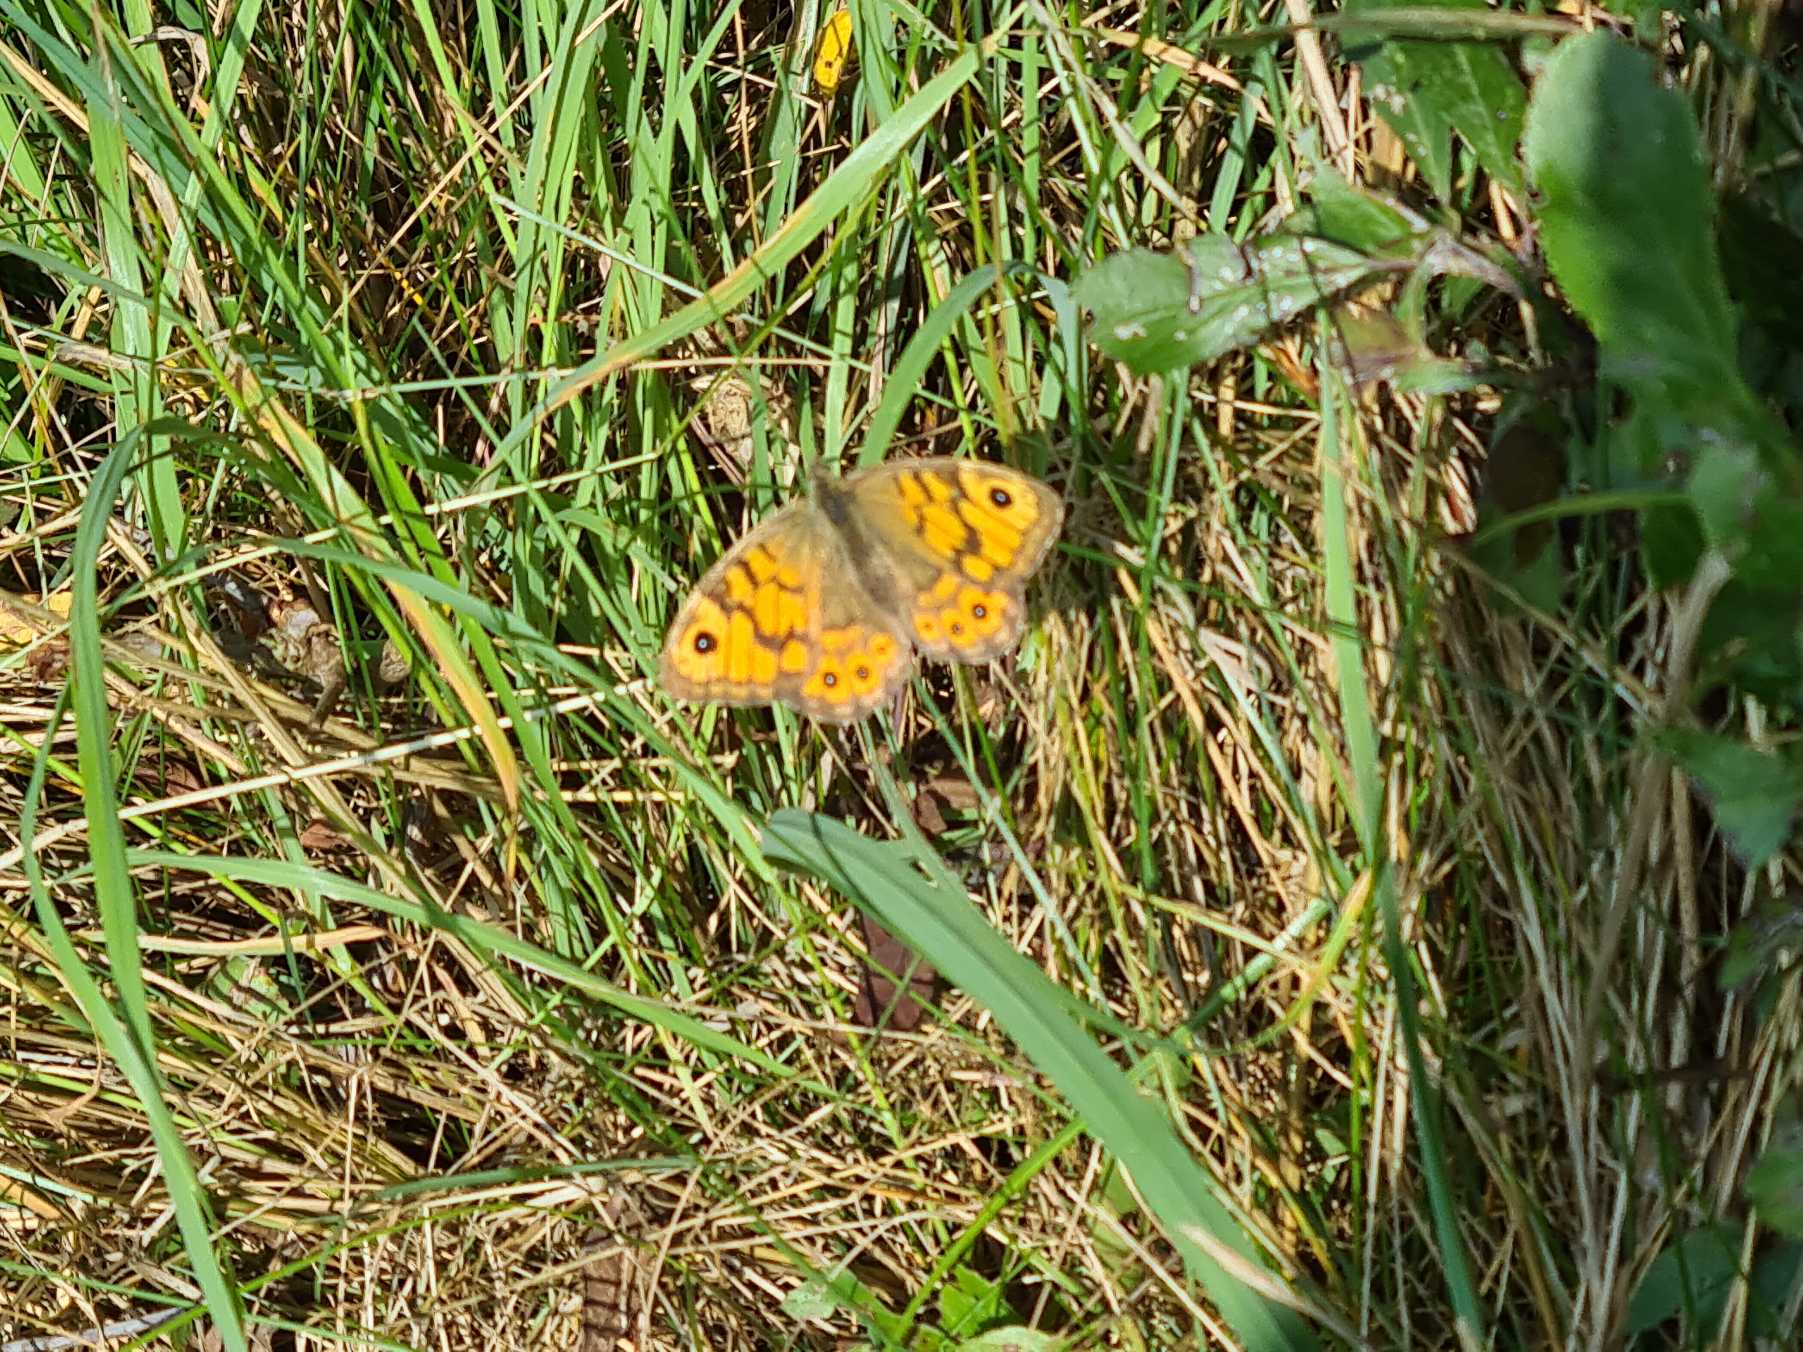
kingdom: Animalia
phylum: Arthropoda
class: Insecta
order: Lepidoptera
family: Nymphalidae
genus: Pararge
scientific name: Pararge Lasiommata megera
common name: Vejrandøje
